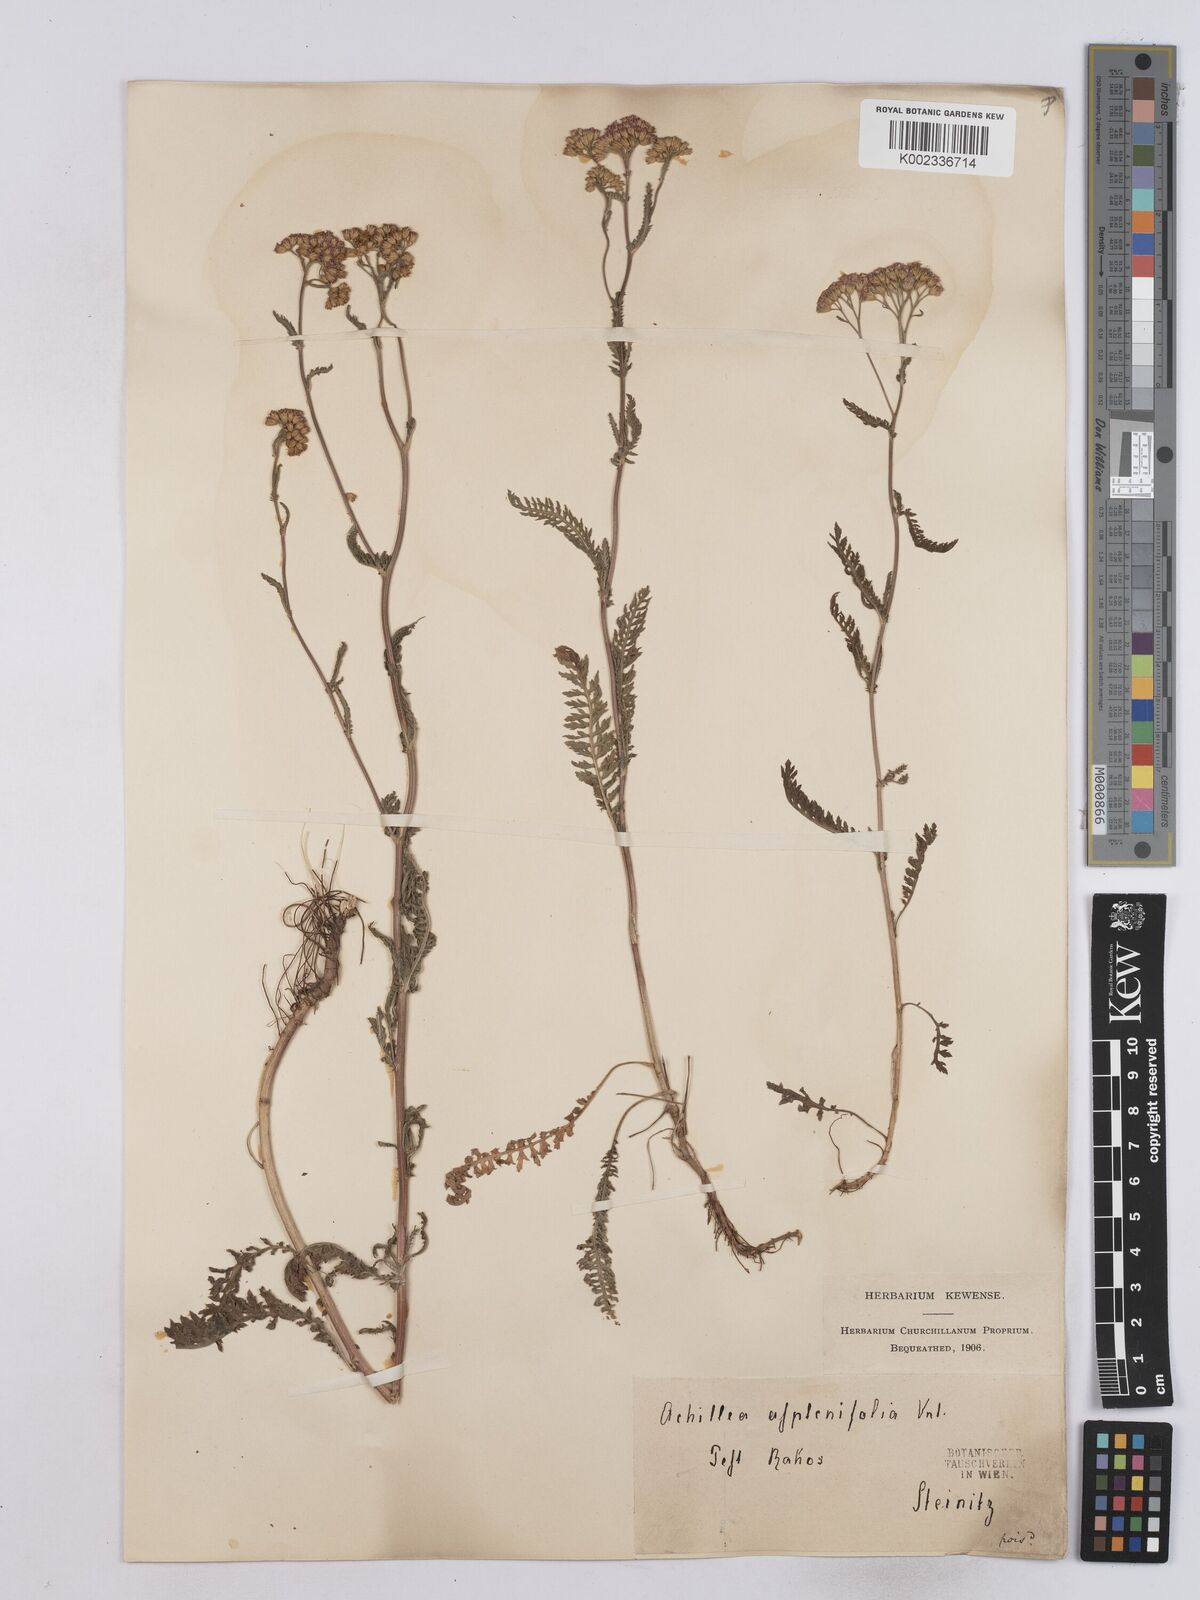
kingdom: Plantae
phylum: Tracheophyta
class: Magnoliopsida
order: Asterales
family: Asteraceae
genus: Achillea
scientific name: Achillea aspleniifolia
